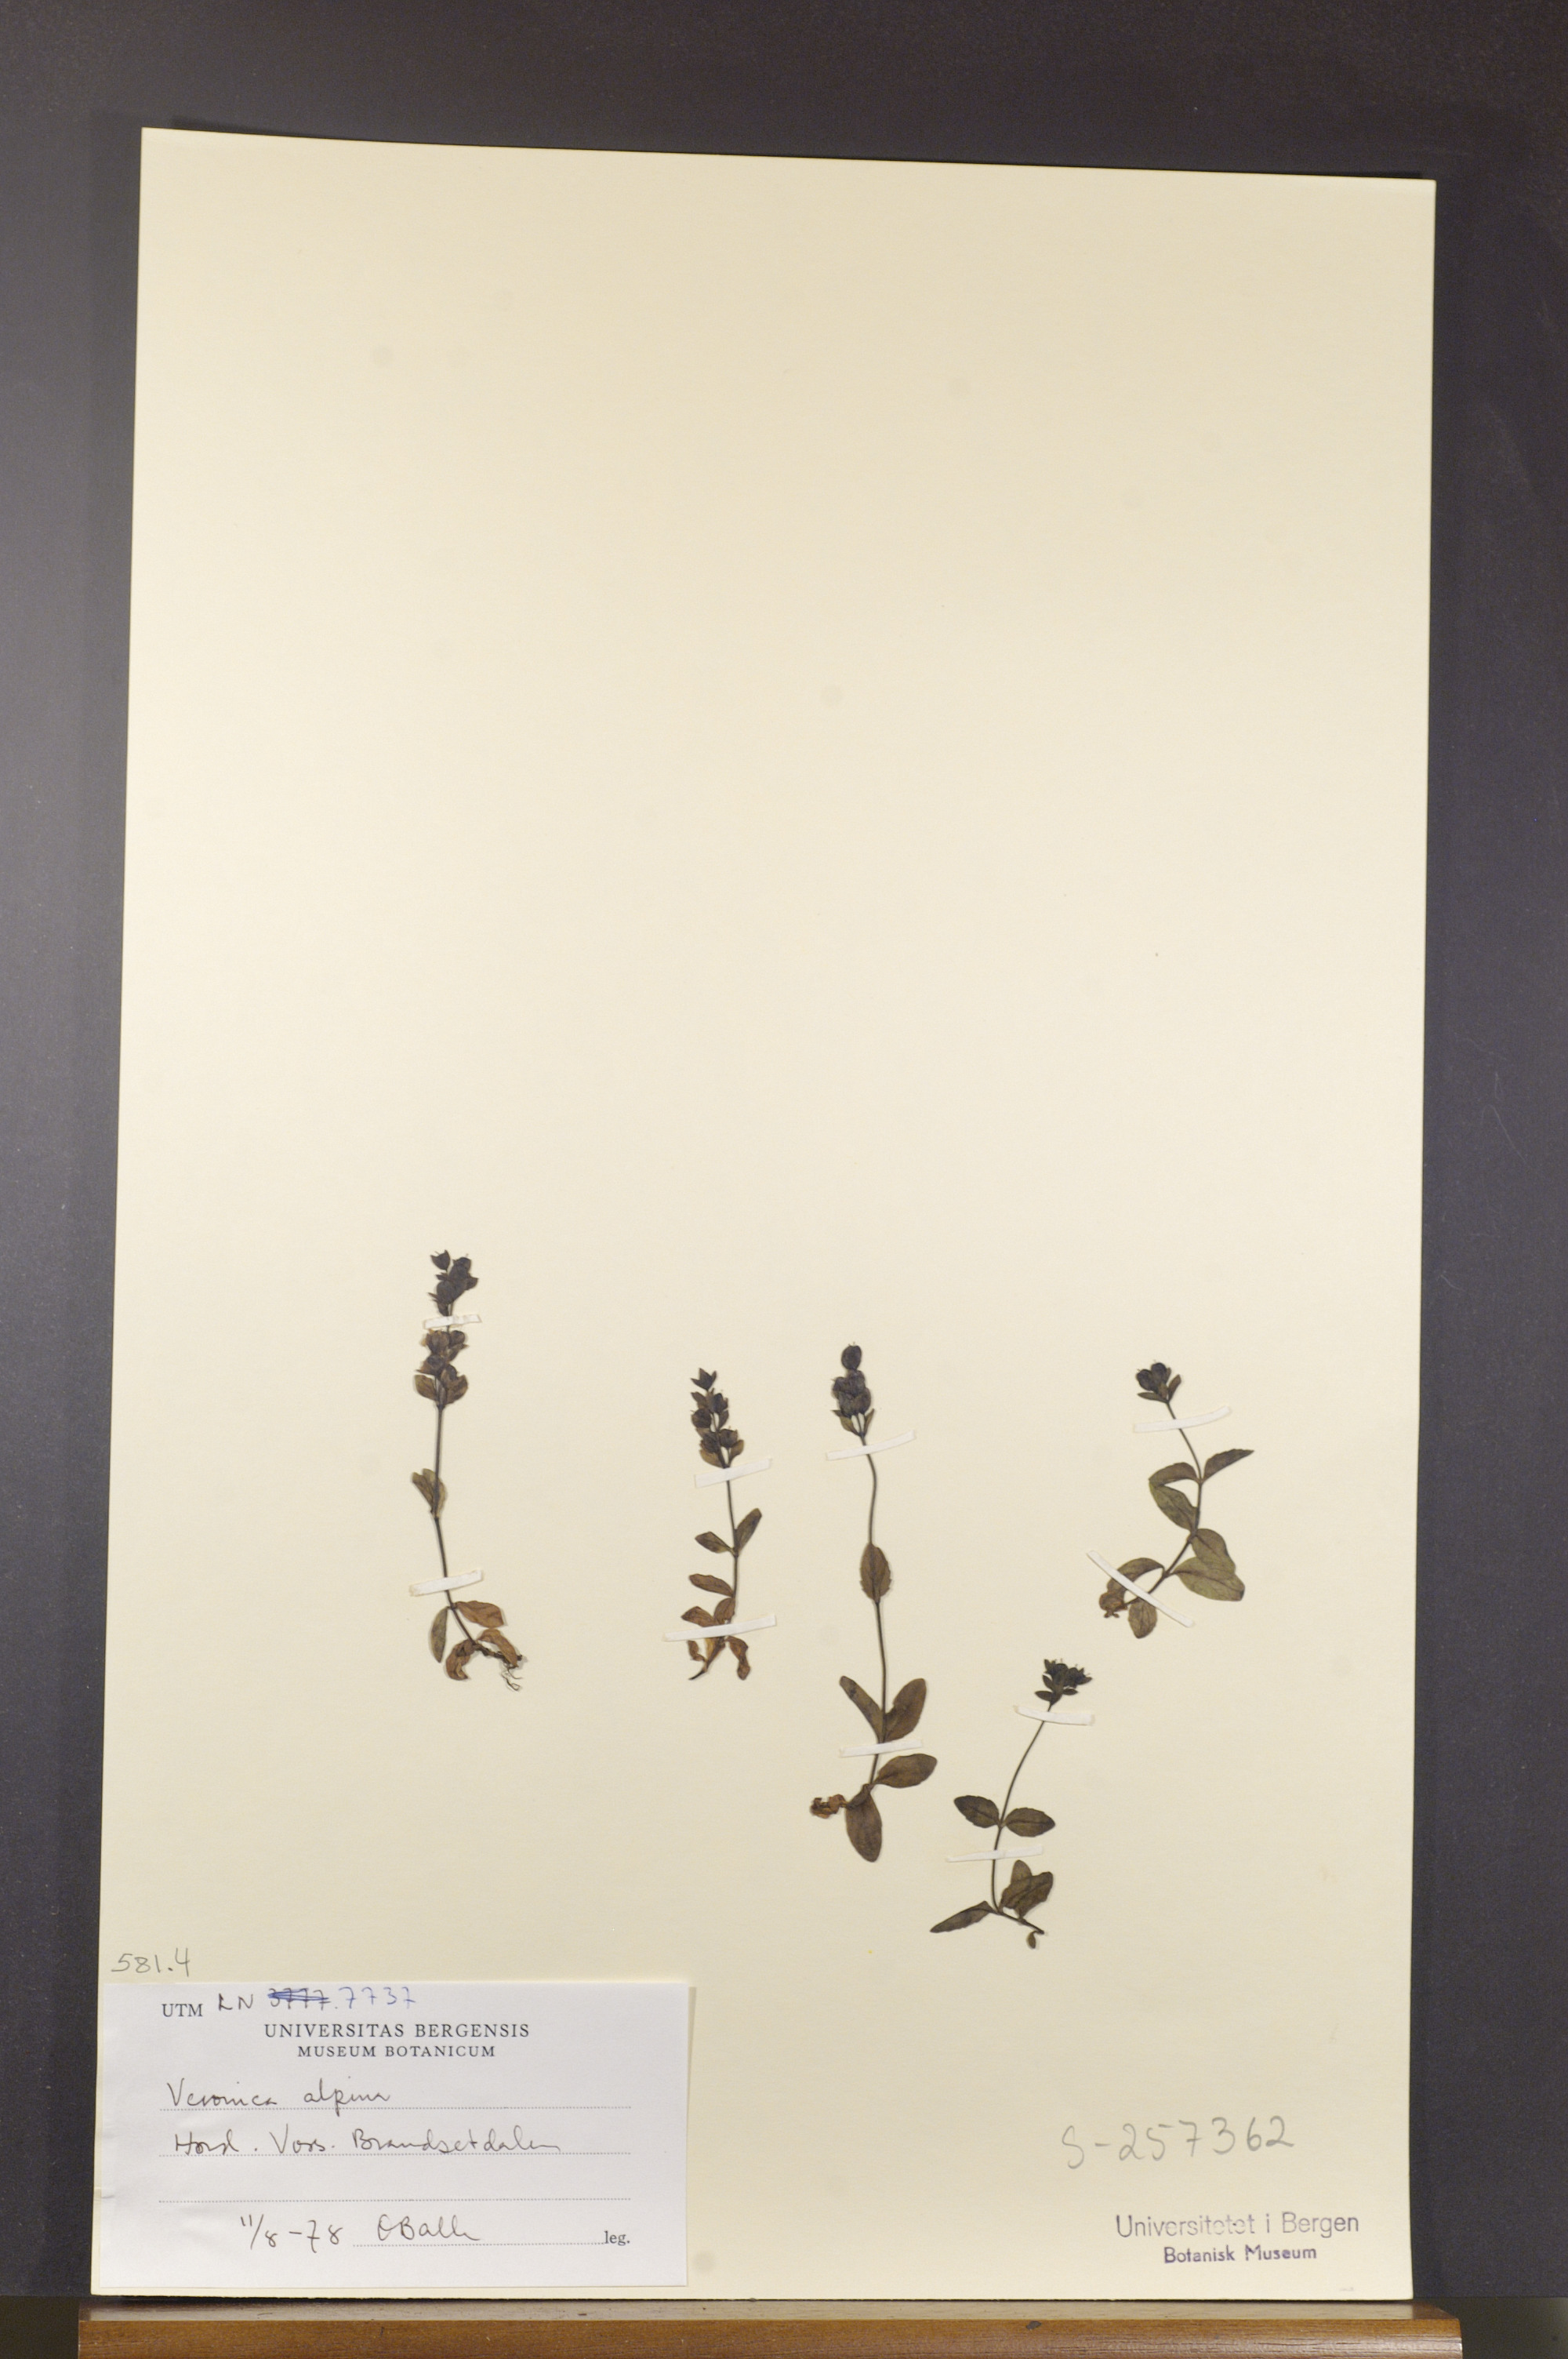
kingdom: Plantae
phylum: Tracheophyta
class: Magnoliopsida
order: Lamiales
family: Plantaginaceae
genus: Veronica
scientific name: Veronica alpina
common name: Alpine speedwell
